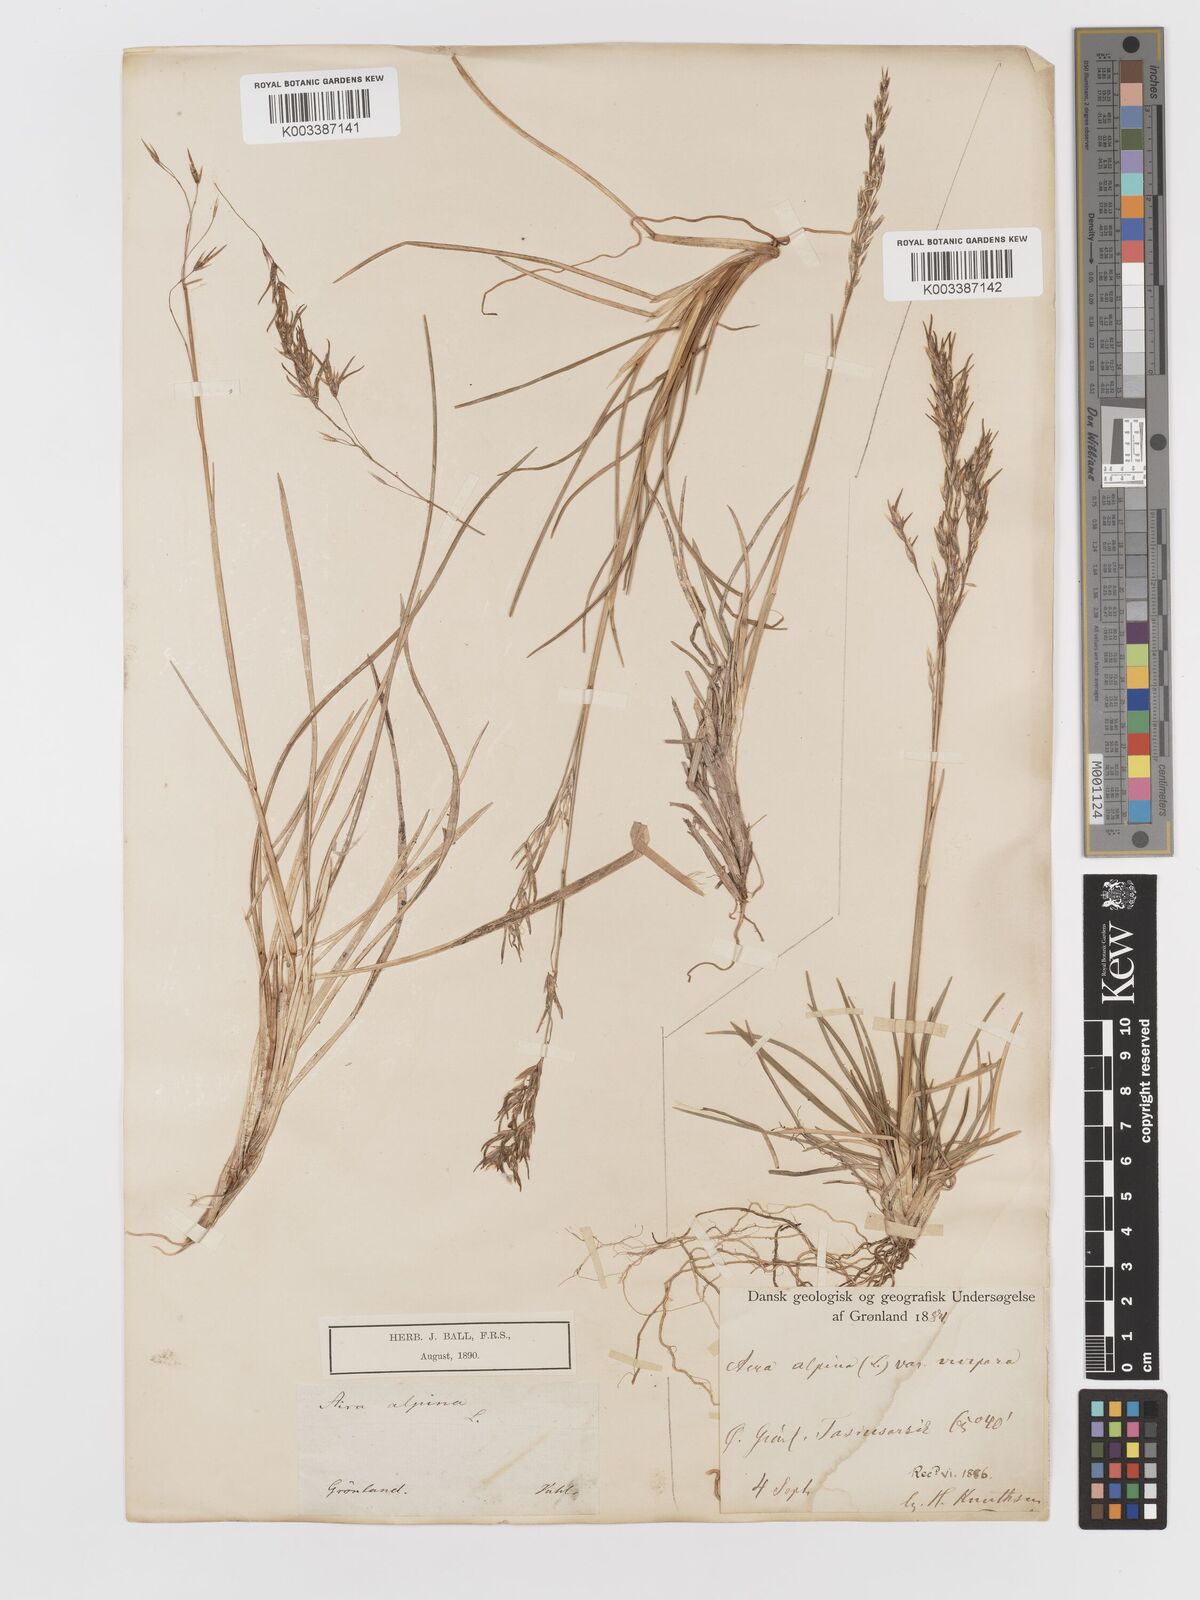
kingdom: Plantae
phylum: Tracheophyta
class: Liliopsida
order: Poales
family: Poaceae
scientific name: Poaceae
